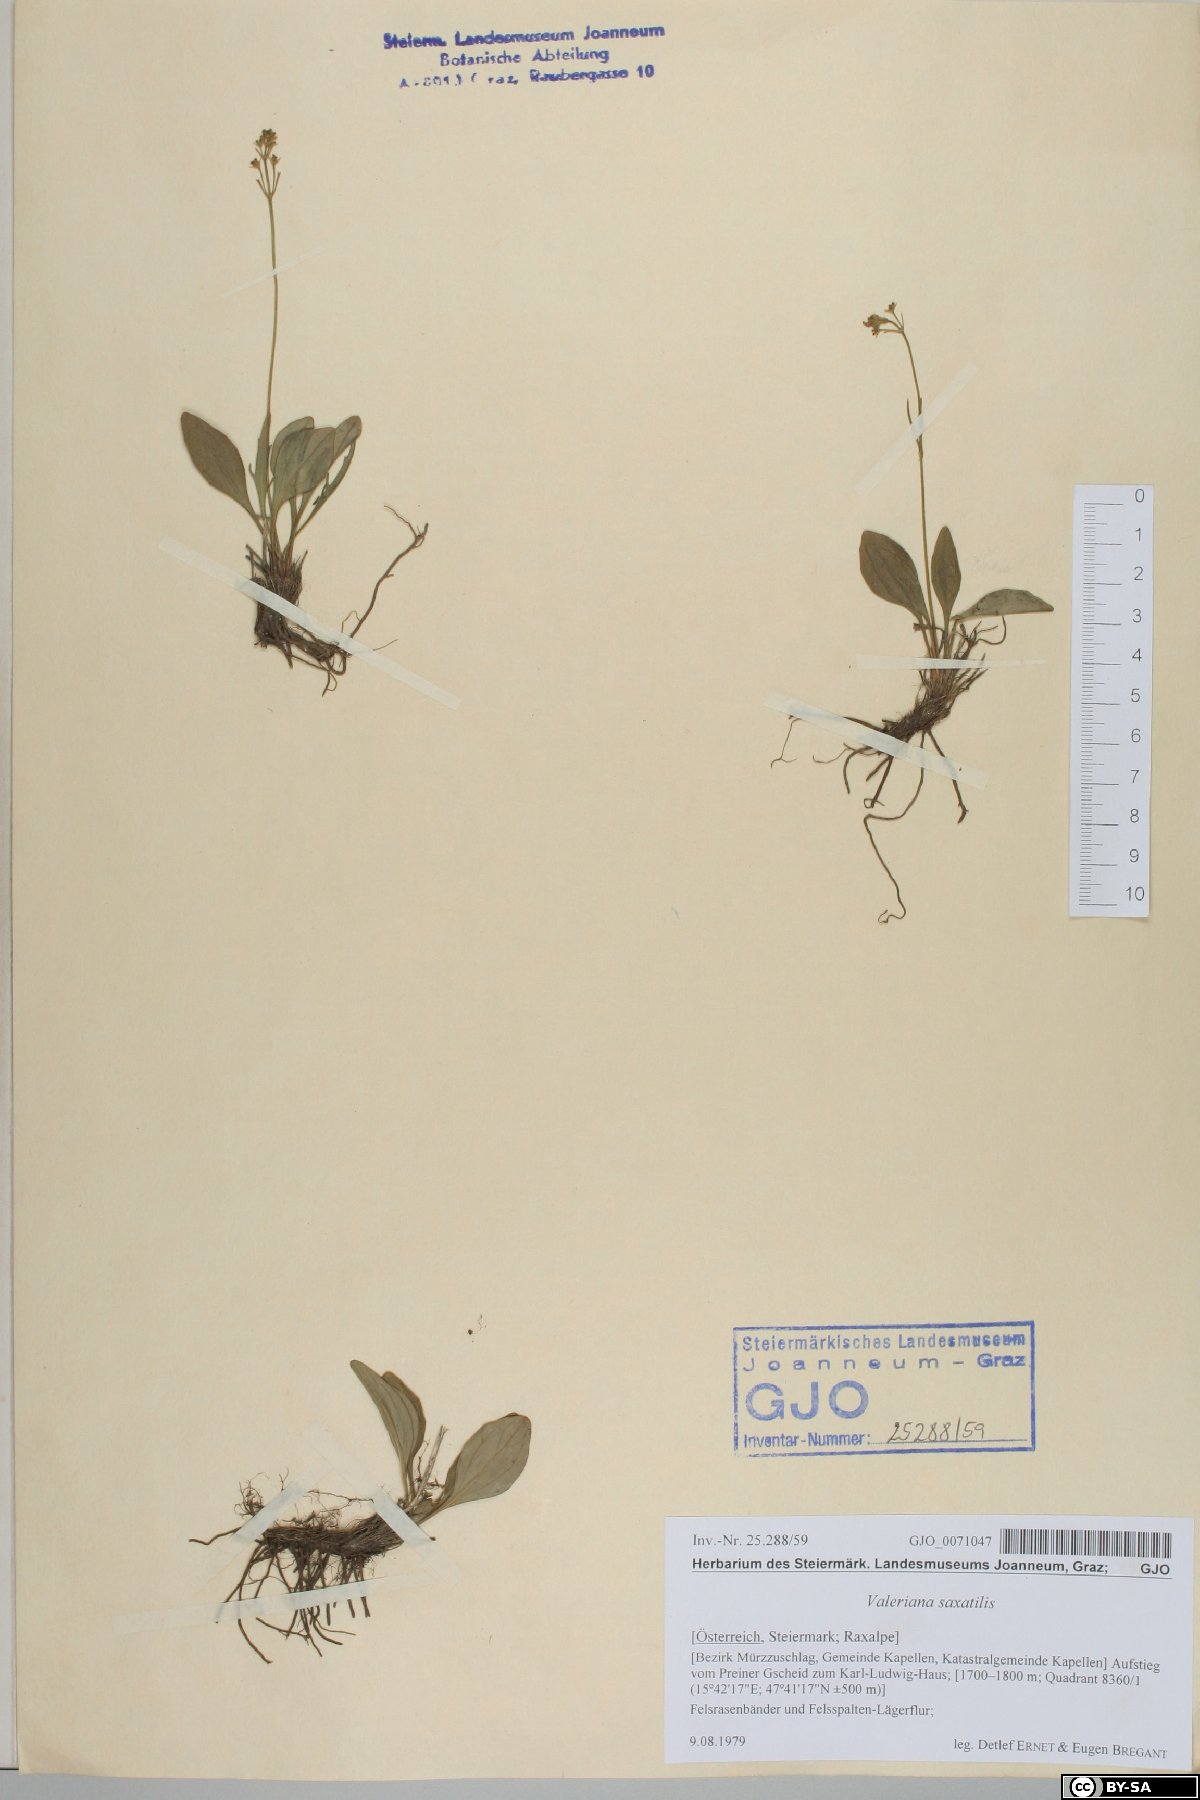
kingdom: Plantae
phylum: Tracheophyta
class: Magnoliopsida
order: Dipsacales
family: Caprifoliaceae
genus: Valeriana
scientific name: Valeriana saxatilis
